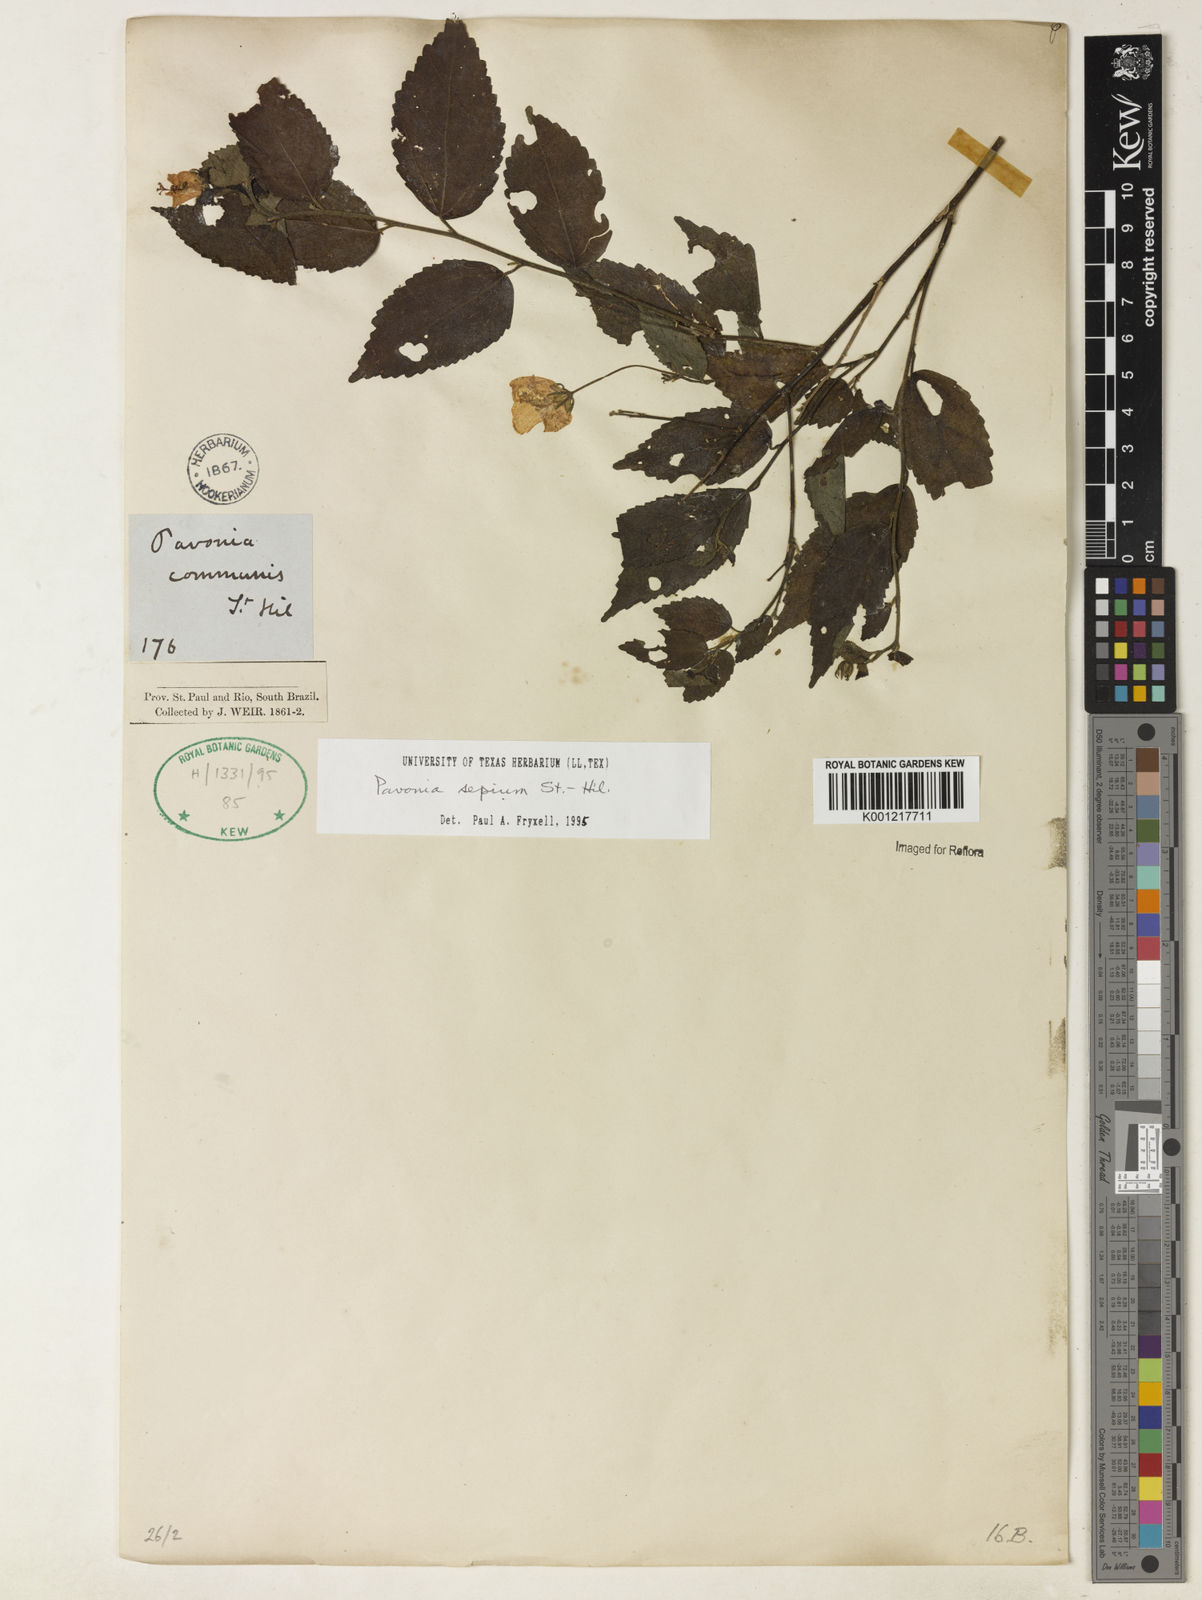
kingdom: Plantae
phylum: Tracheophyta
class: Magnoliopsida
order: Malvales
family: Malvaceae
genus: Pavonia
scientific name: Pavonia sepium
